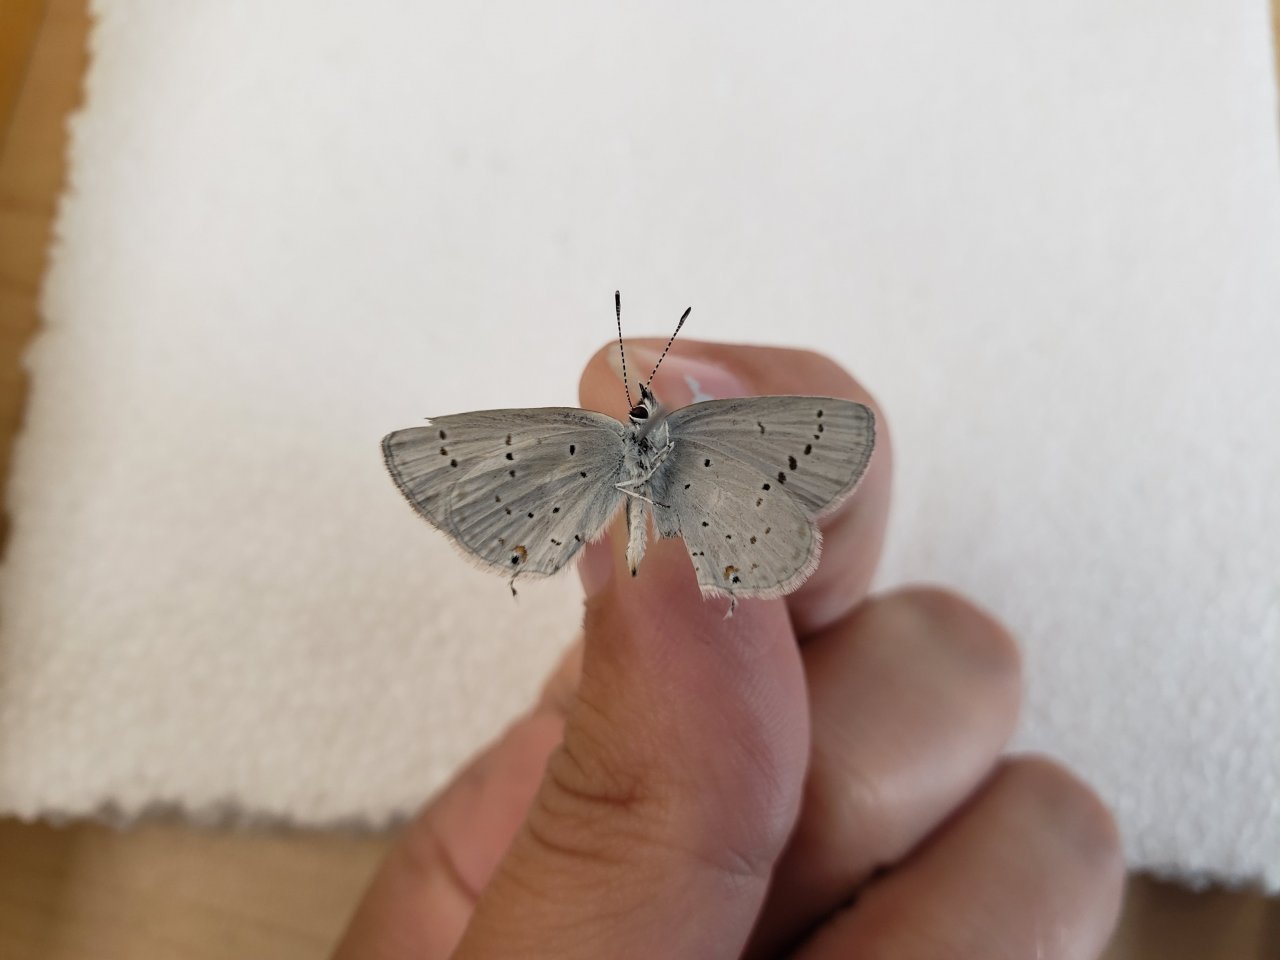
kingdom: Animalia
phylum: Arthropoda
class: Insecta
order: Lepidoptera
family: Lycaenidae
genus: Elkalyce
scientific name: Elkalyce amyntula
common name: Western Tailed-Blue
